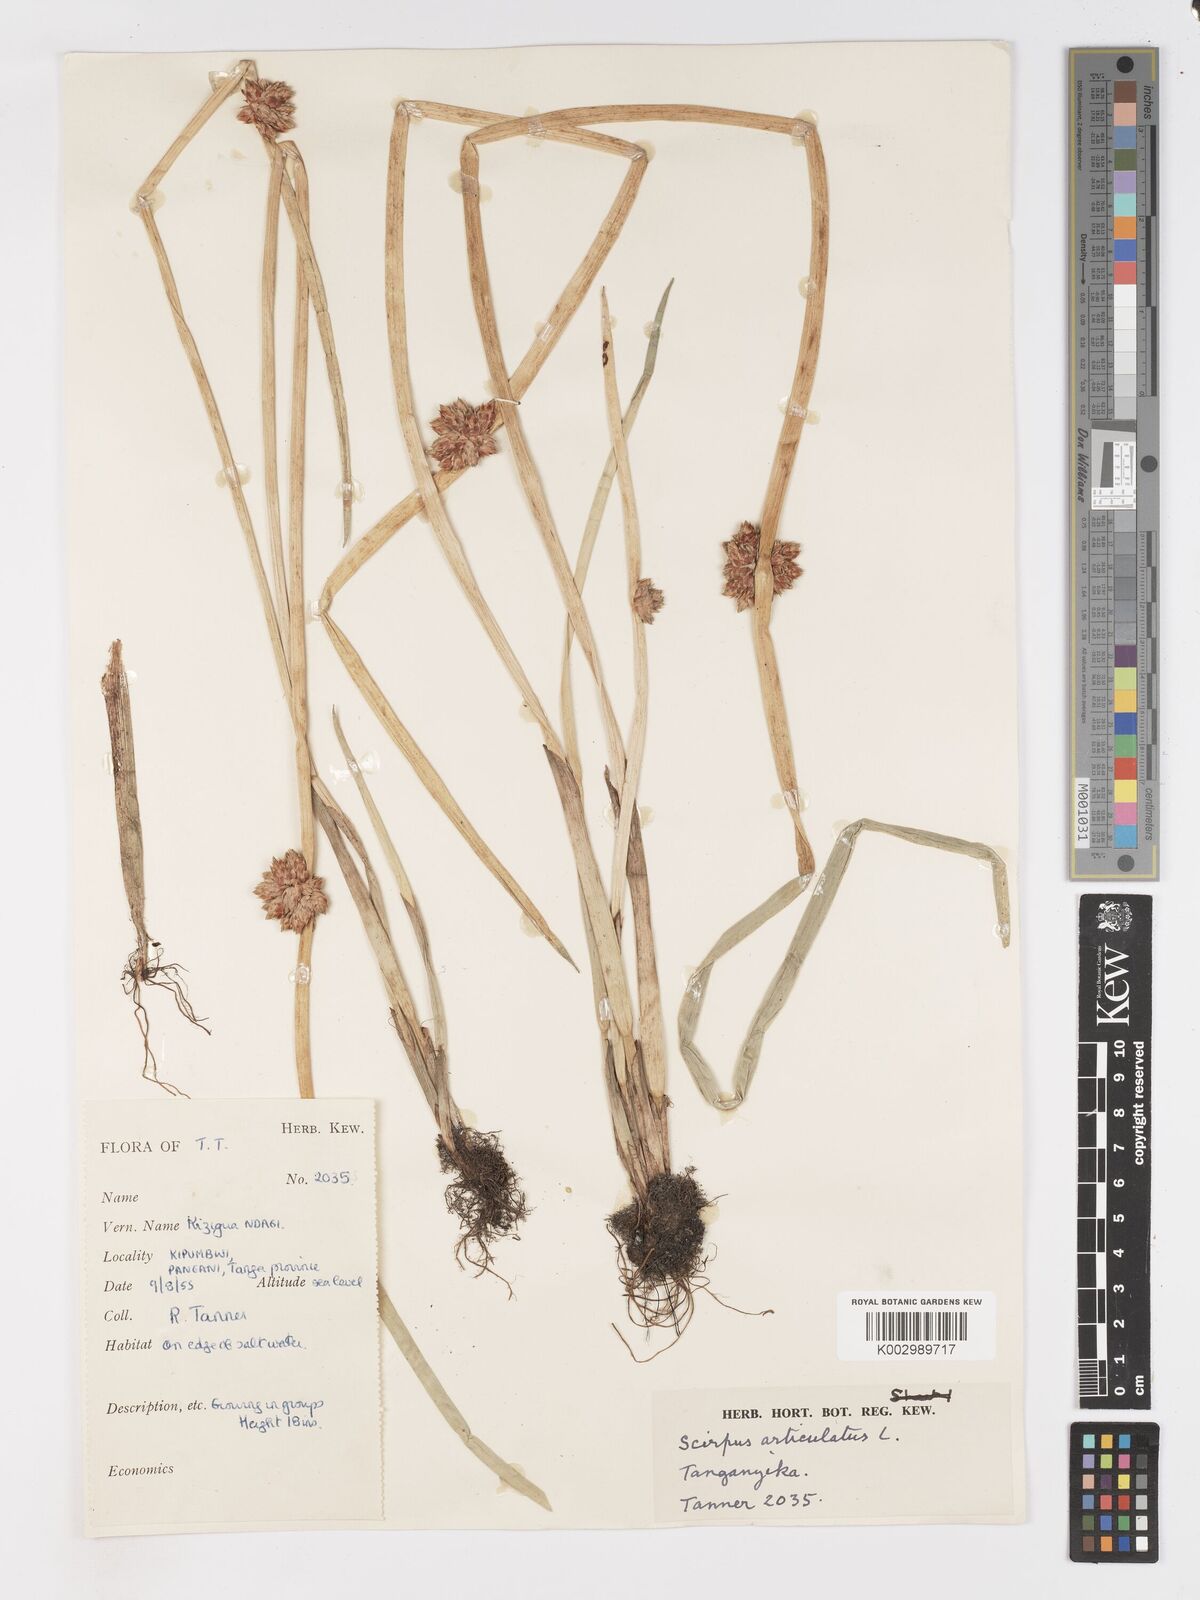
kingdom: Plantae
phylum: Tracheophyta
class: Liliopsida
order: Poales
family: Cyperaceae
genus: Schoenoplectiella
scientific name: Schoenoplectiella articulata
